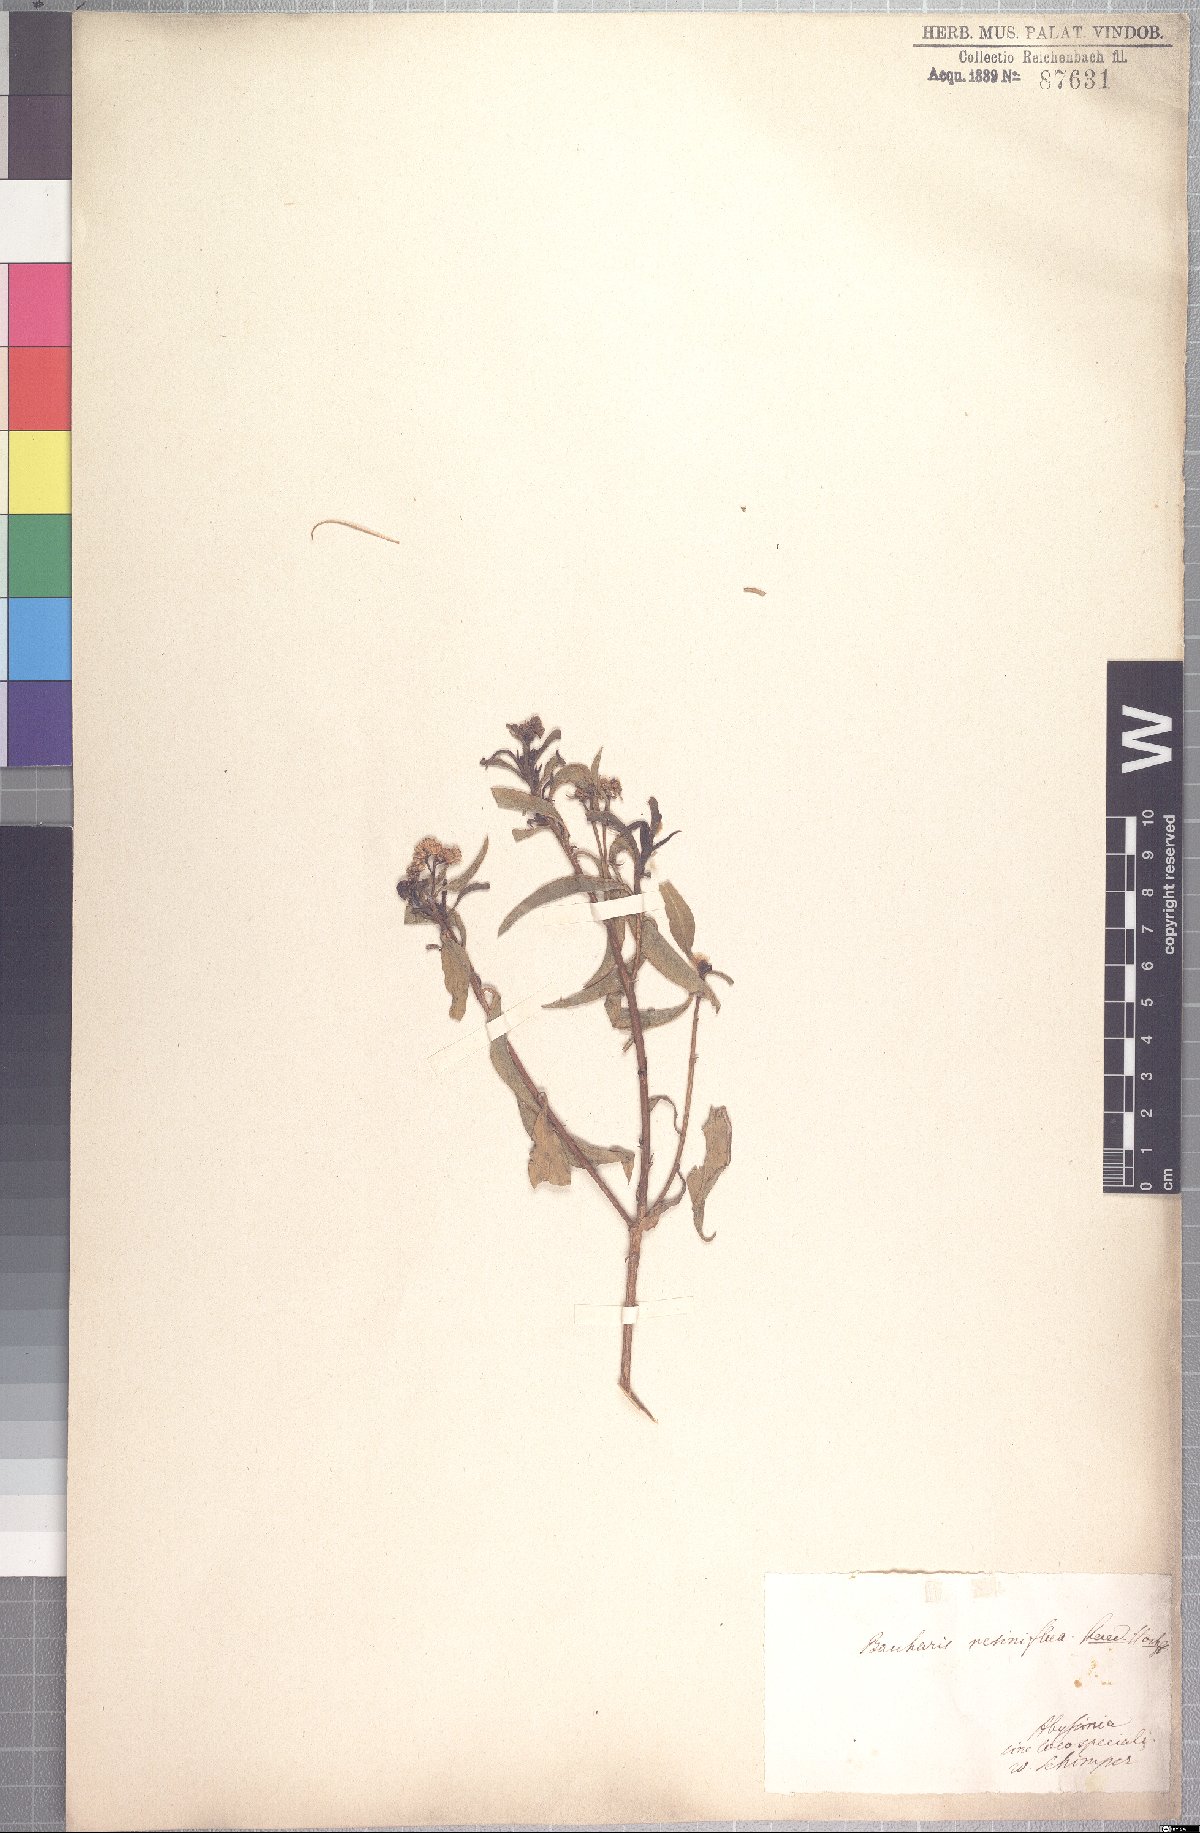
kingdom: Plantae
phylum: Tracheophyta
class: Magnoliopsida
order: Asterales
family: Asteraceae
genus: Psiadia
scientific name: Psiadia punctulata
